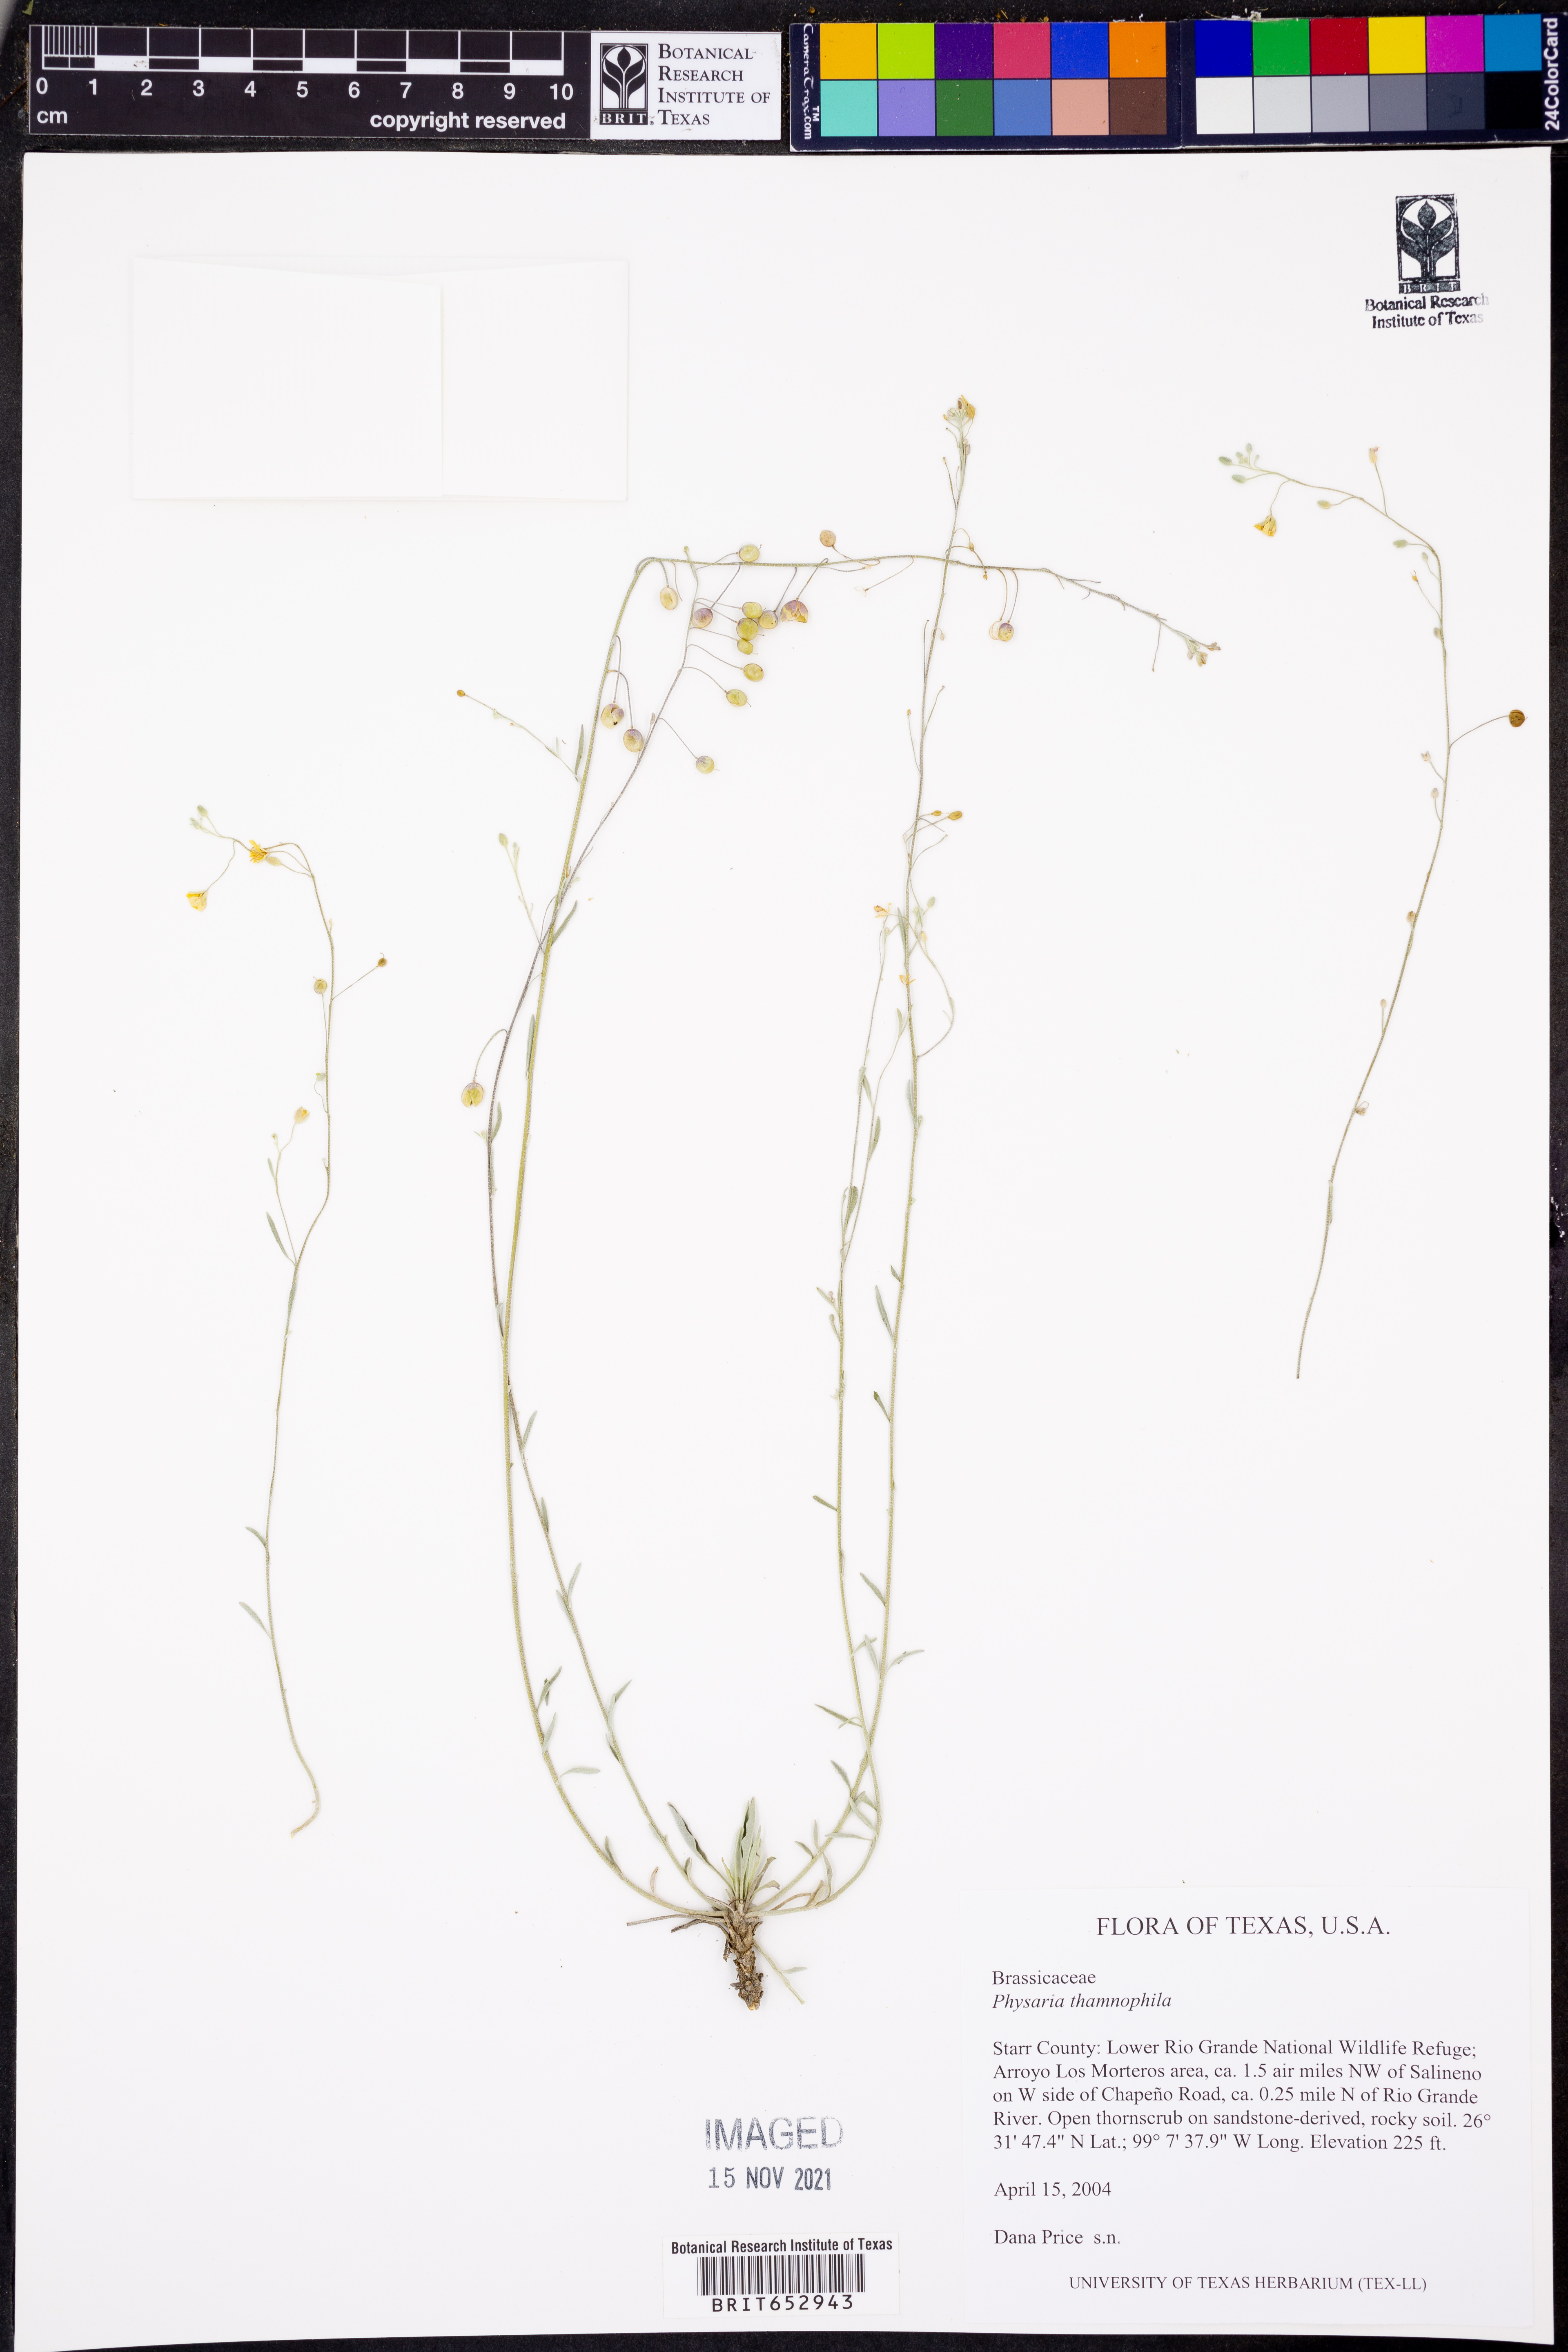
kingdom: Plantae
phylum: Tracheophyta
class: Magnoliopsida
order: Brassicales
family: Brassicaceae
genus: Physaria
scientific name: Physaria thamnophila
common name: Zapata bladderpod
